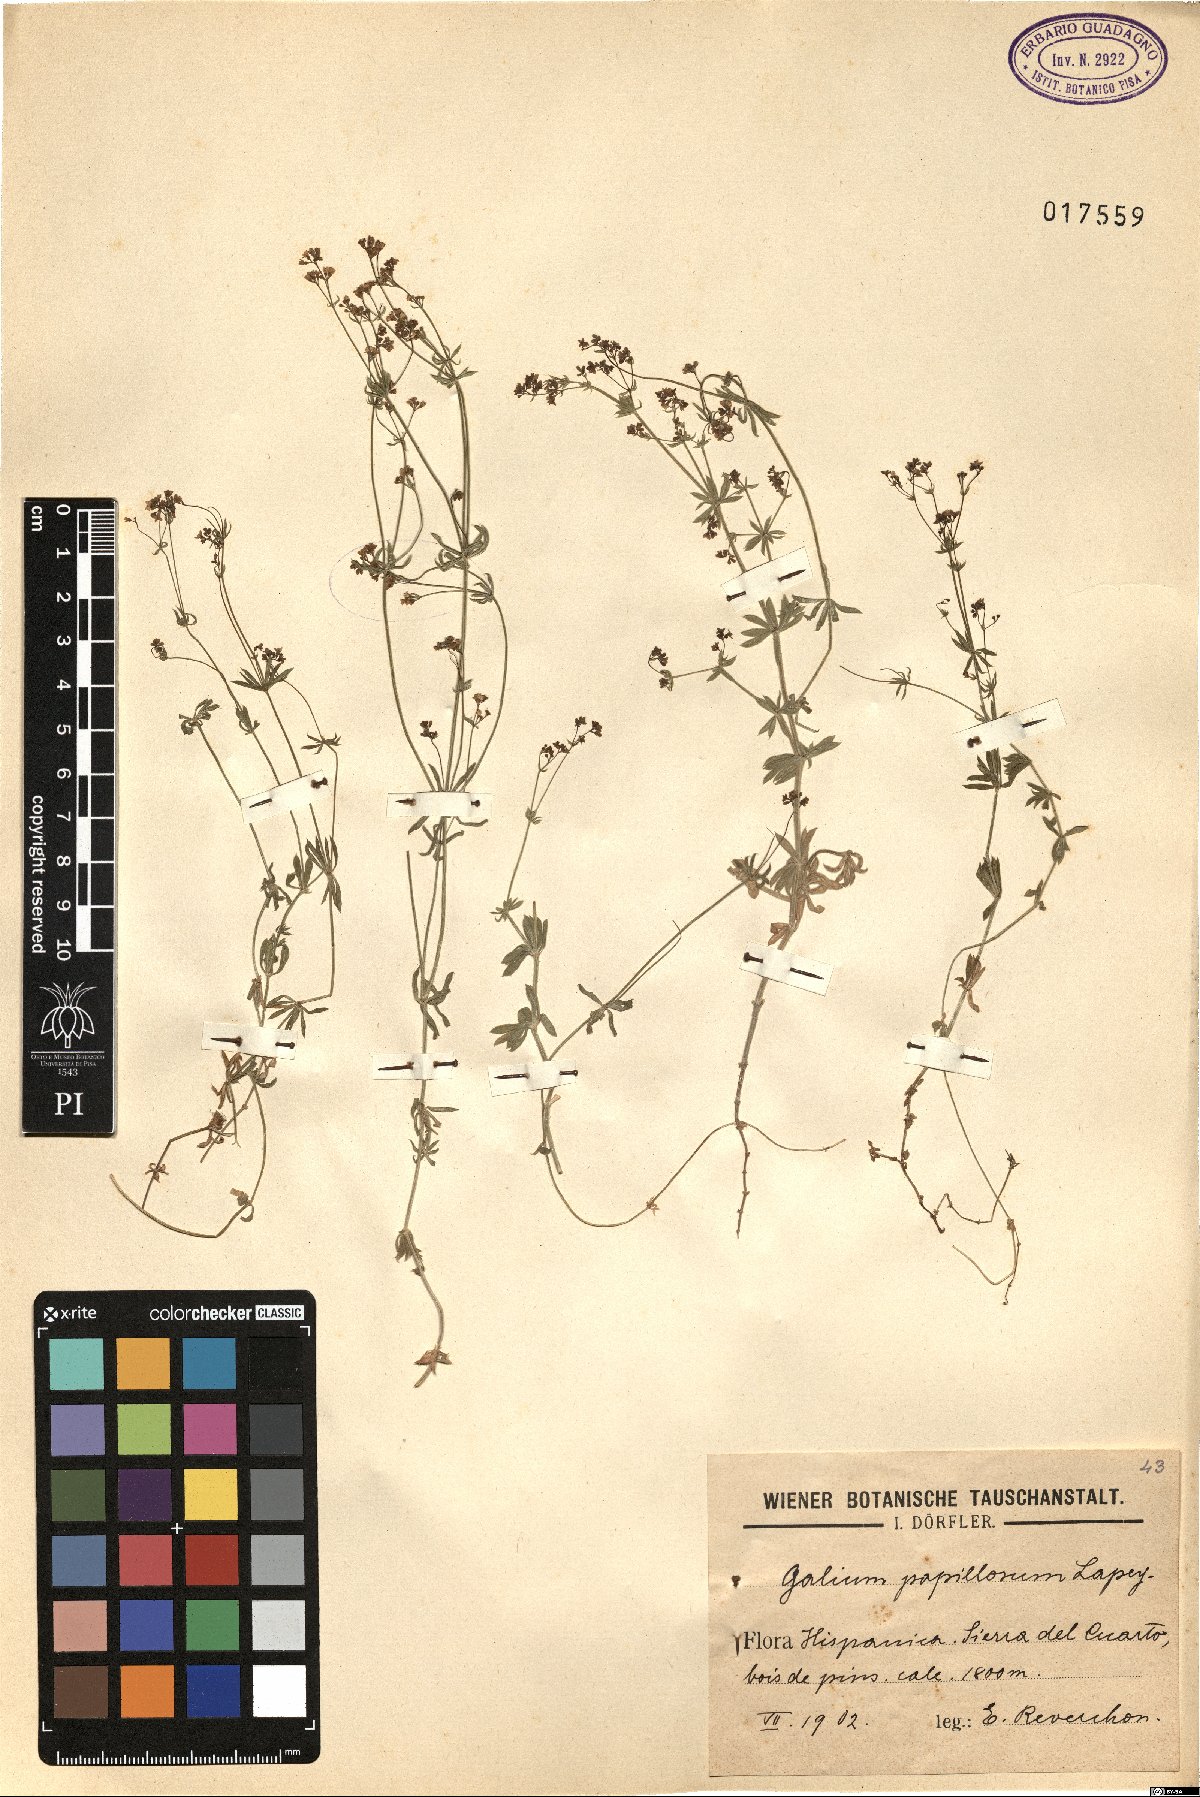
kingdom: Plantae
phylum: Tracheophyta
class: Magnoliopsida
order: Gentianales
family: Rubiaceae
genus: Galium
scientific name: Galium papillosum
